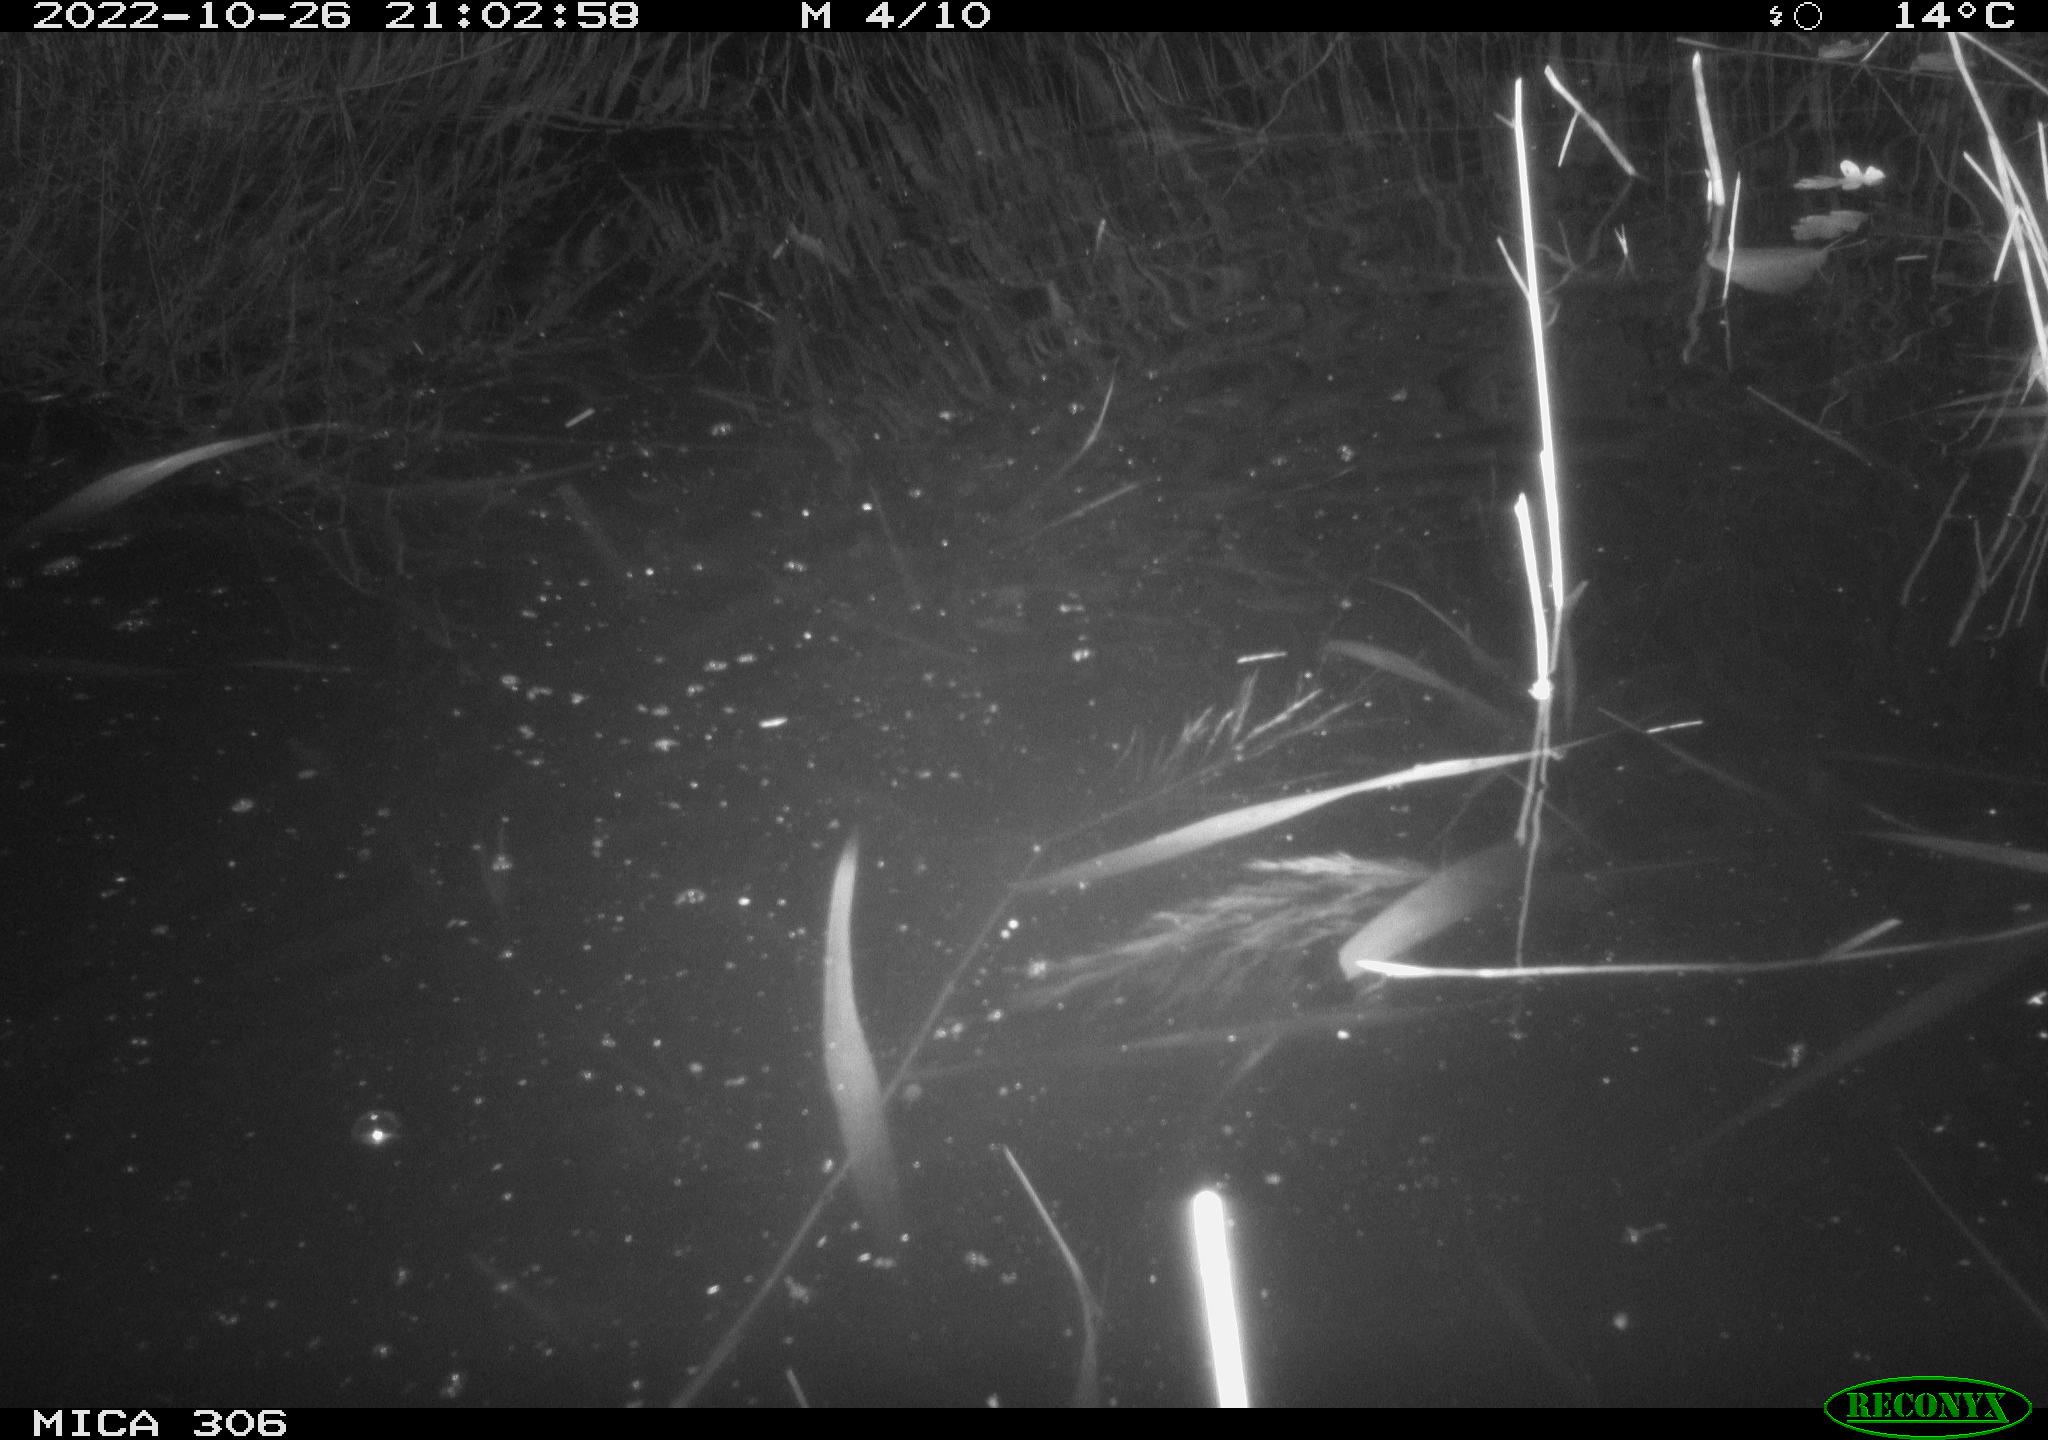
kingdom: Animalia
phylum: Chordata
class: Mammalia
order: Rodentia
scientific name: Rodentia
